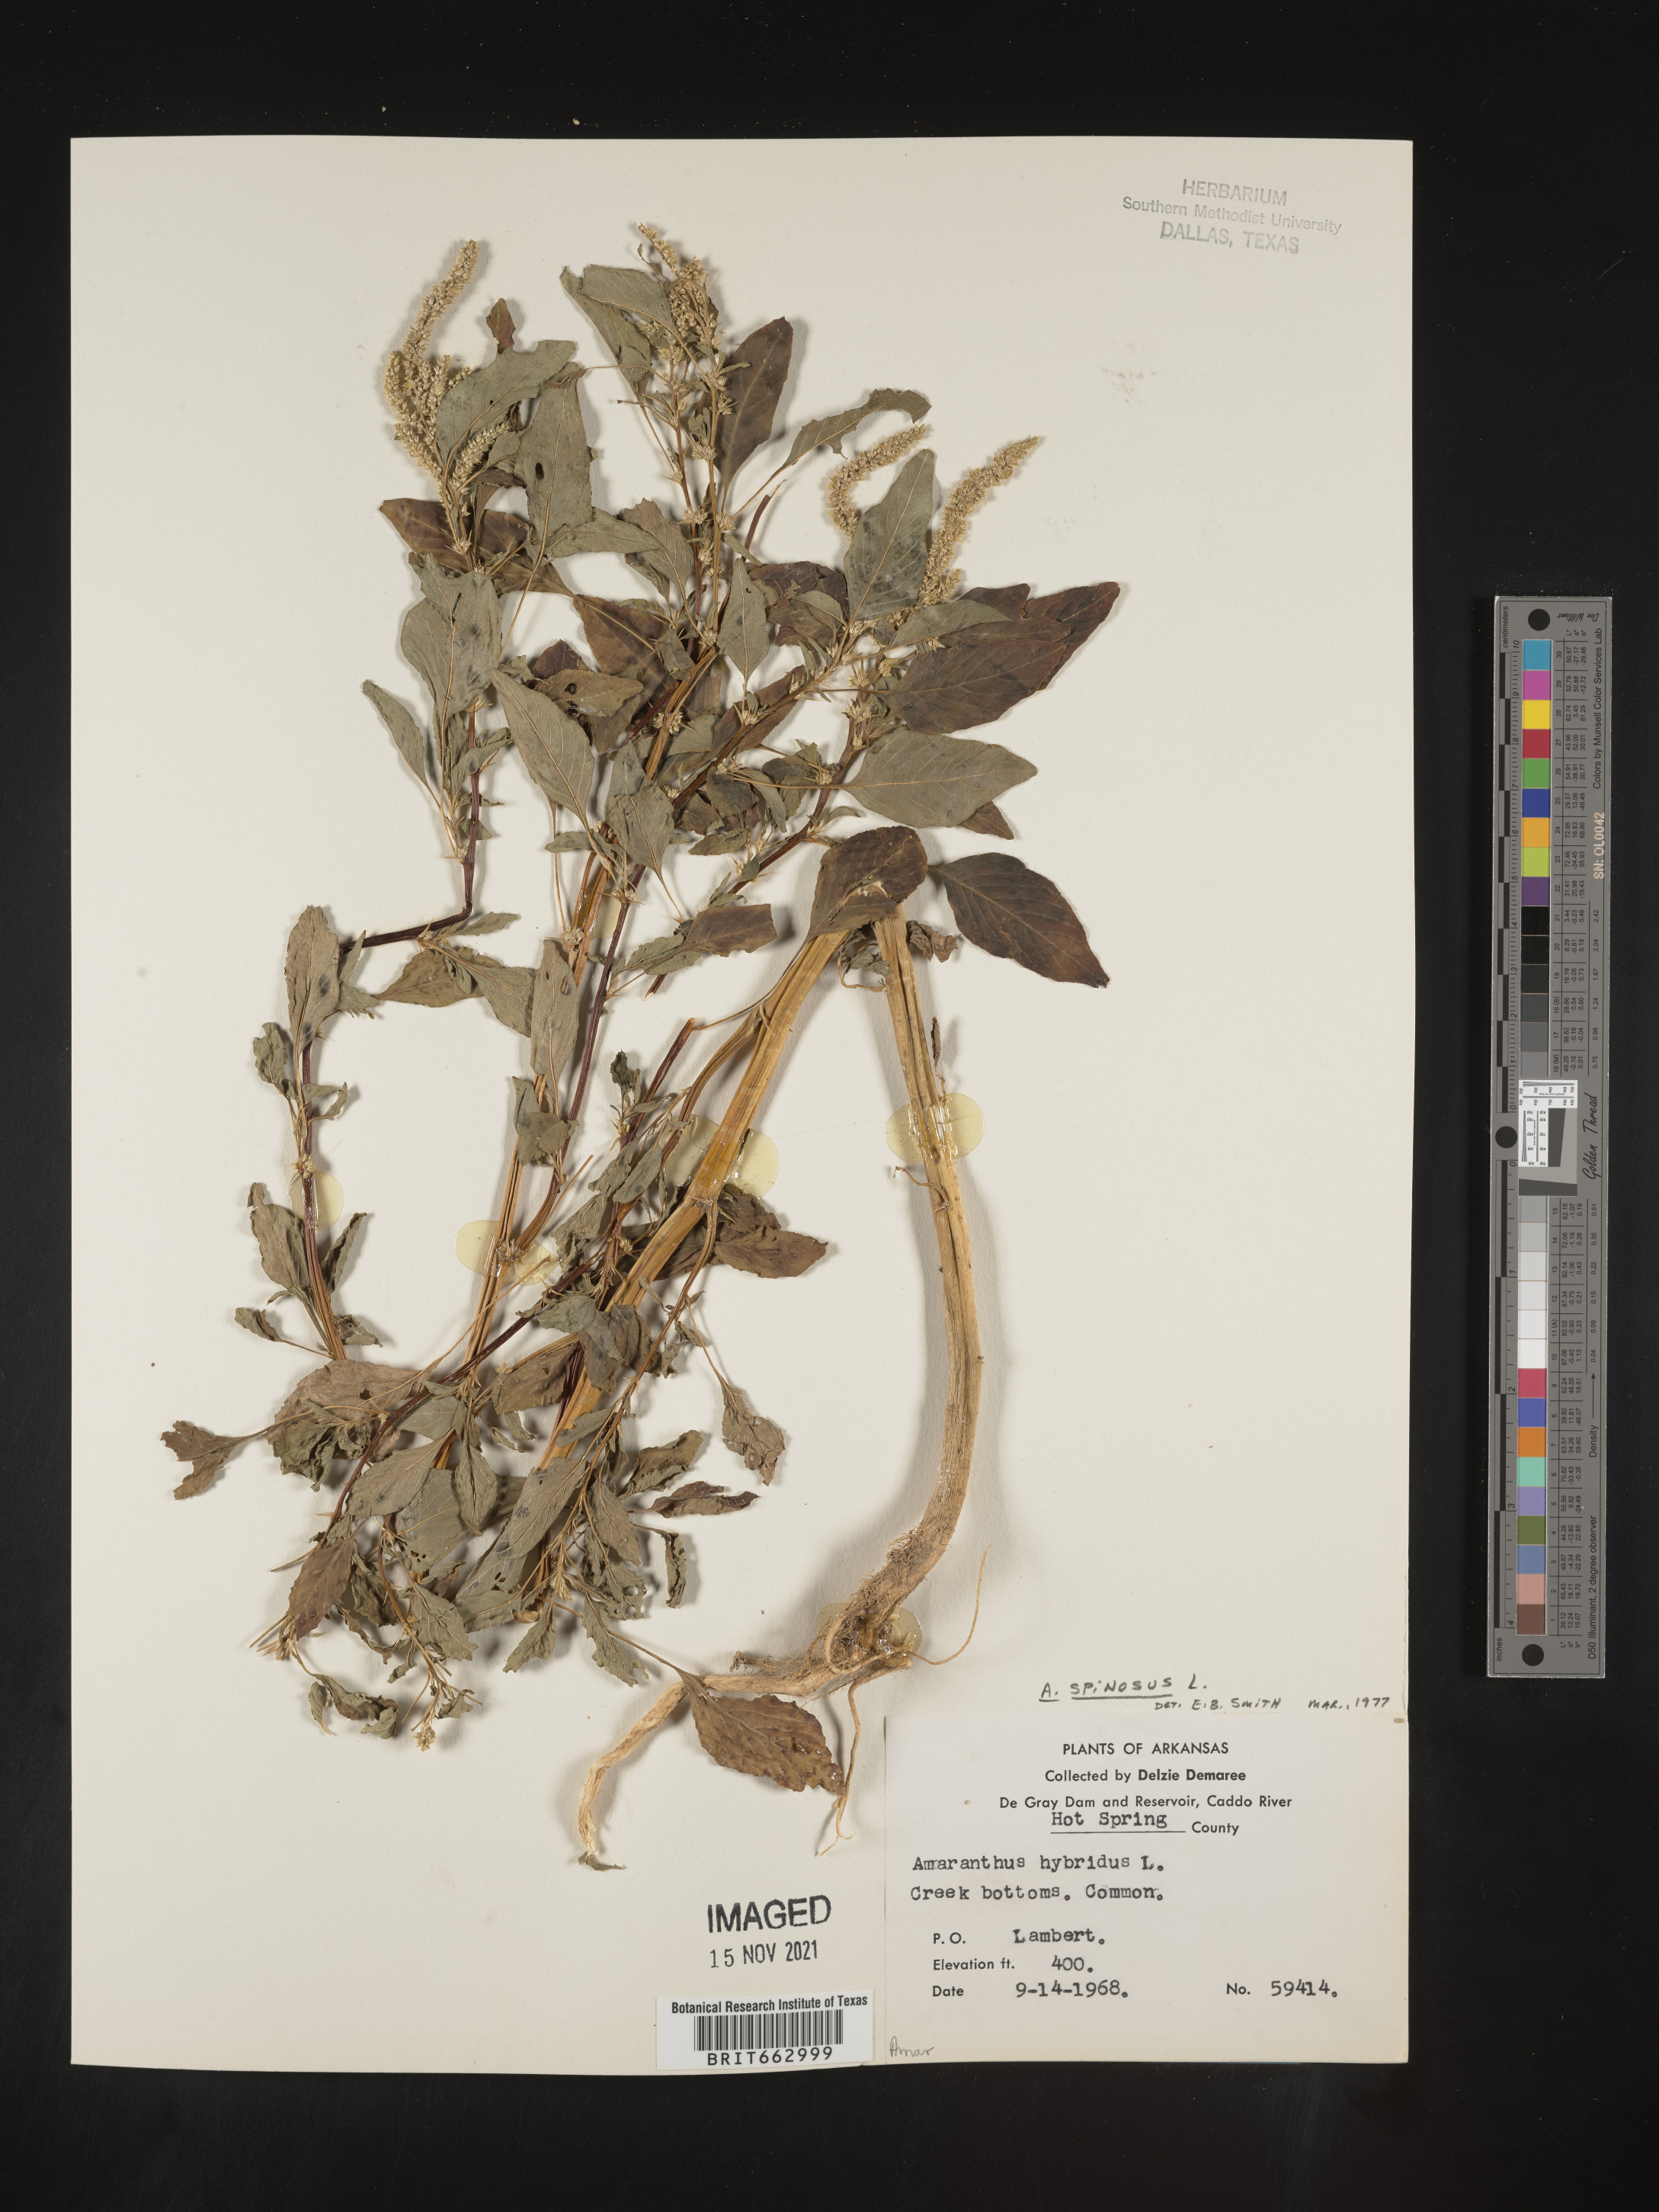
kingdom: Plantae
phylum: Tracheophyta
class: Magnoliopsida
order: Caryophyllales
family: Amaranthaceae
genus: Amaranthus
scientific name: Amaranthus spinosus
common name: Spiny amaranth
